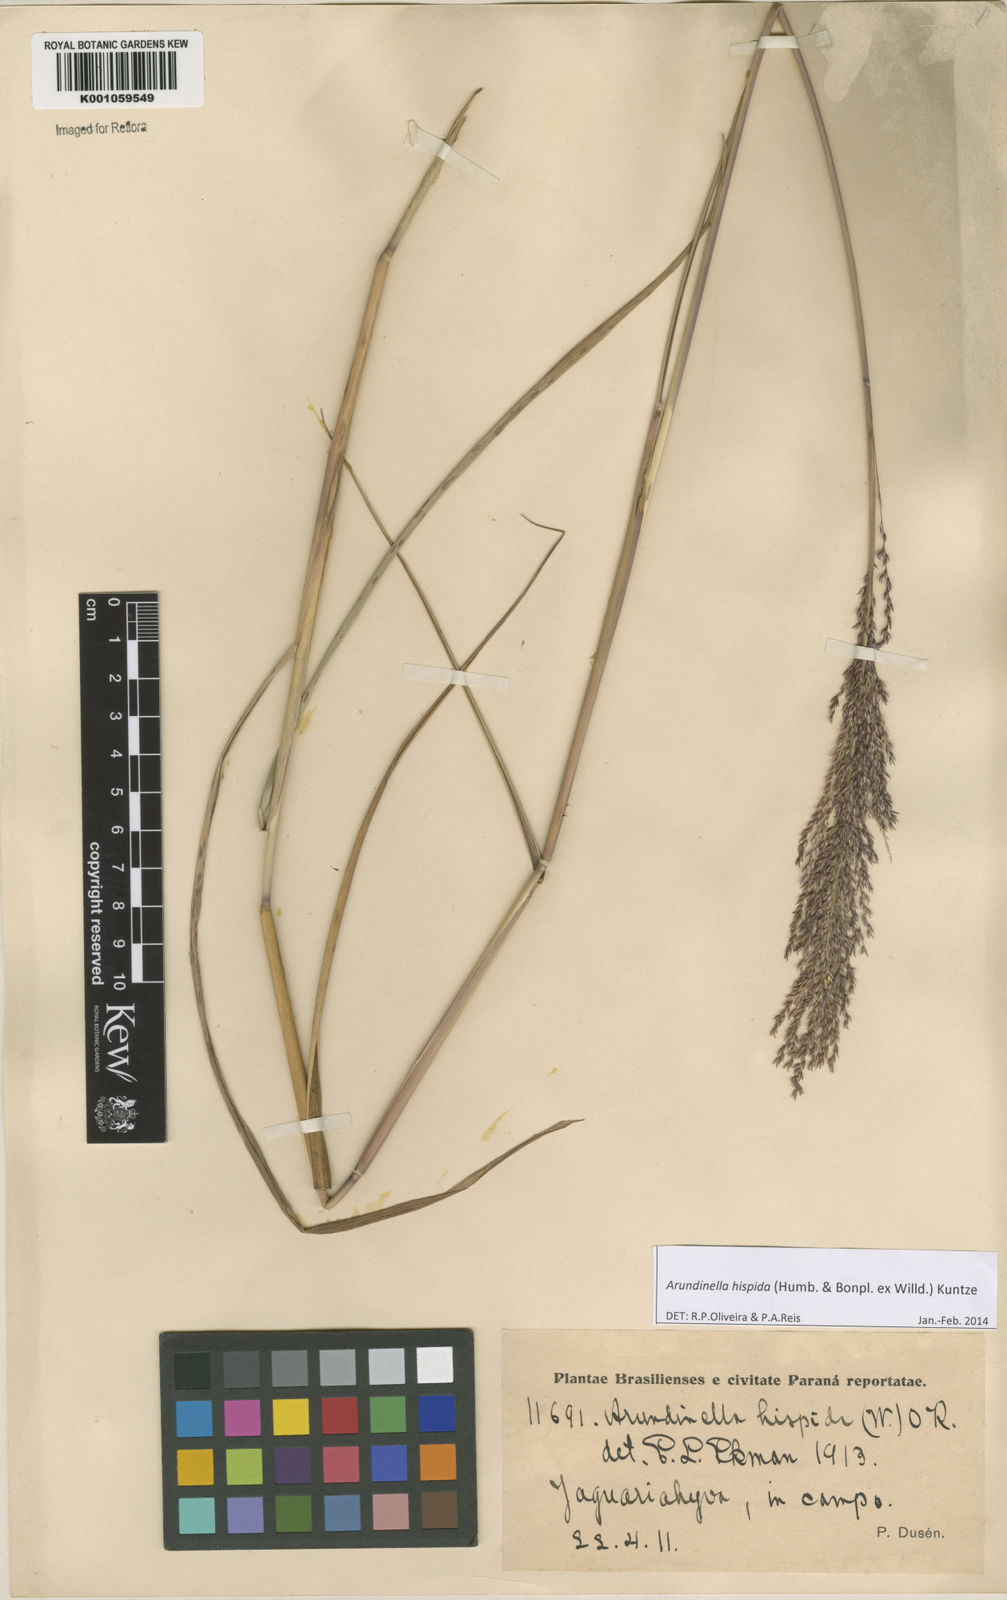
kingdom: Plantae
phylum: Tracheophyta
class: Liliopsida
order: Poales
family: Poaceae
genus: Arundinella
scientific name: Arundinella hispida
